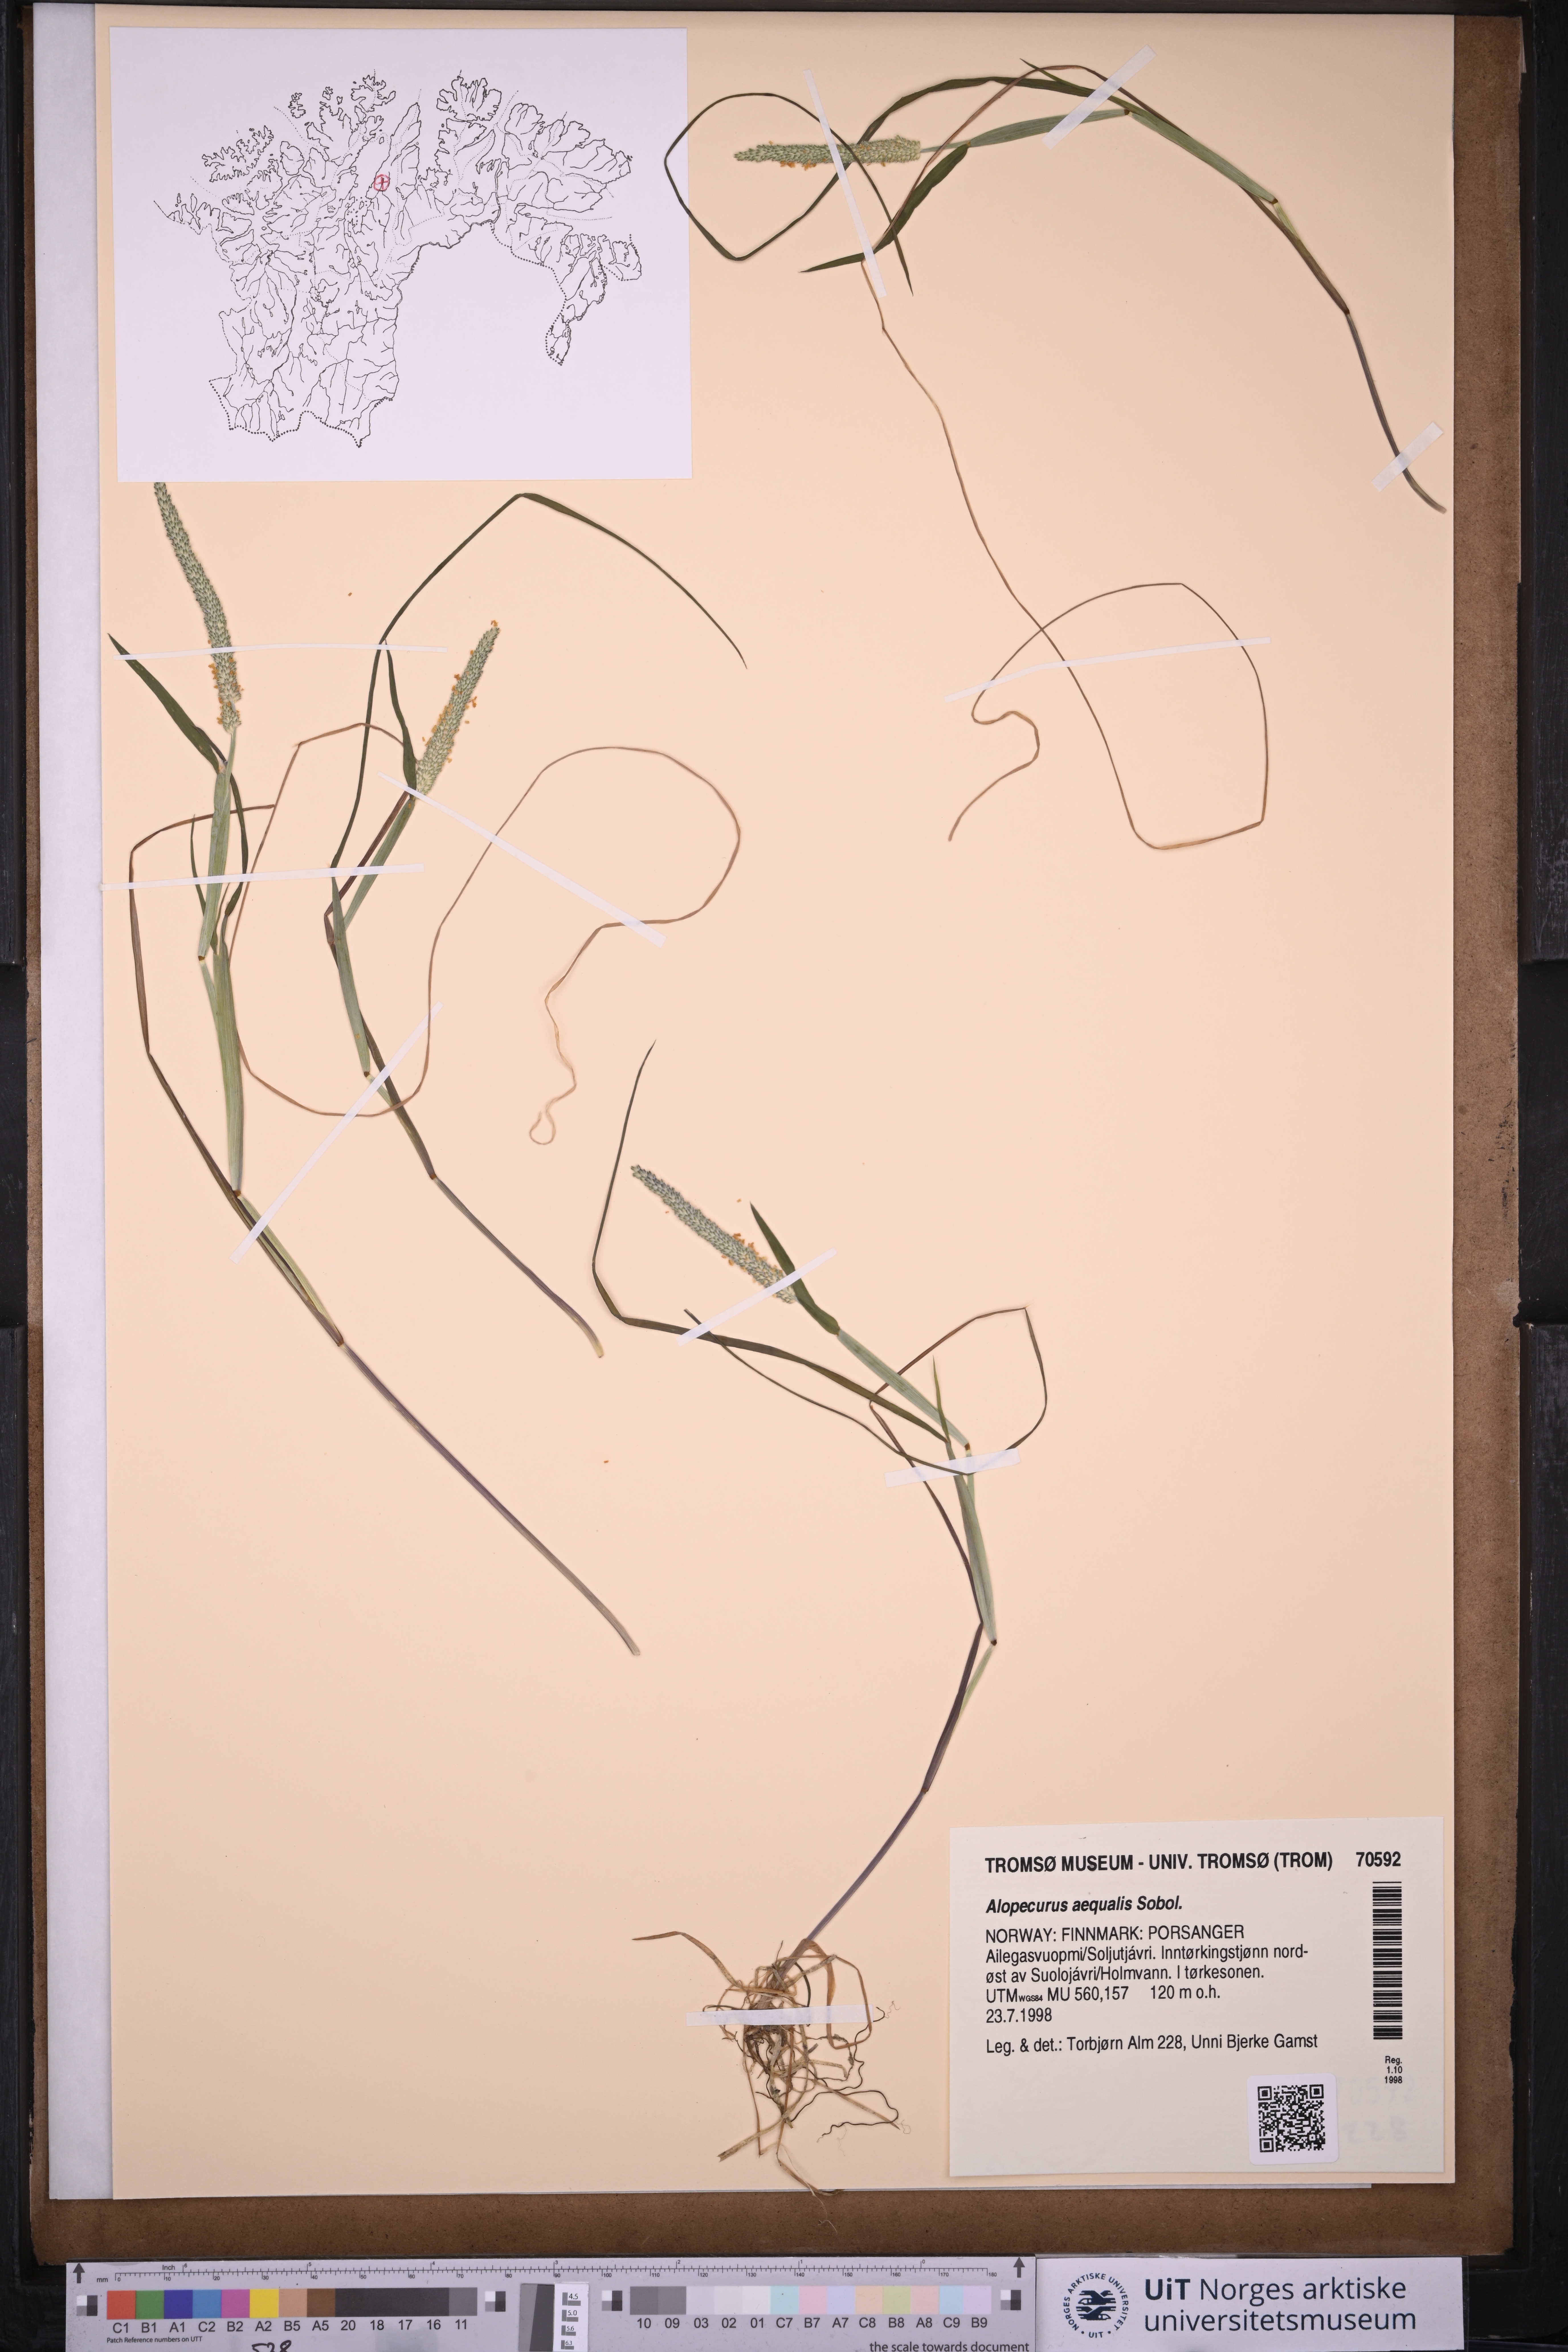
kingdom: Plantae
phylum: Tracheophyta
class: Liliopsida
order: Poales
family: Poaceae
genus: Alopecurus
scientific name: Alopecurus aequalis
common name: Orange foxtail
